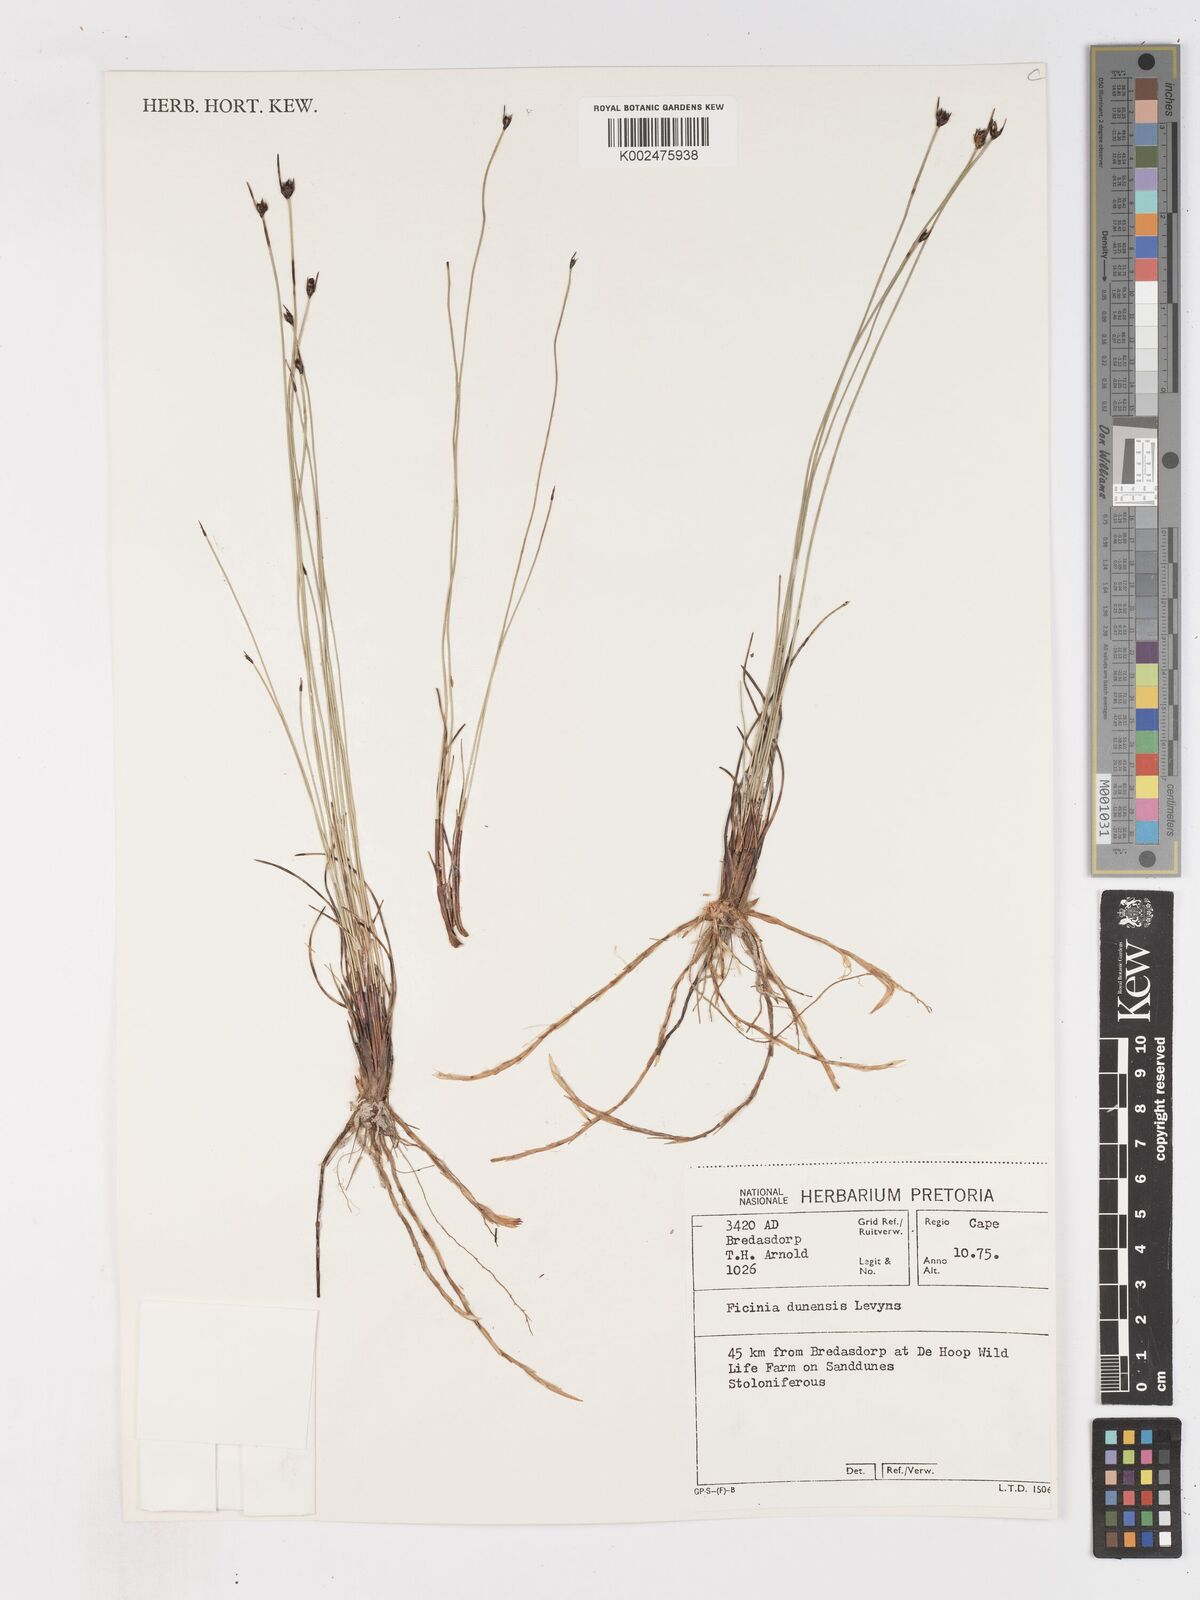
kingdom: Plantae
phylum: Tracheophyta
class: Liliopsida
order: Poales
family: Cyperaceae
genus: Ficinia
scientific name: Ficinia dunensis
